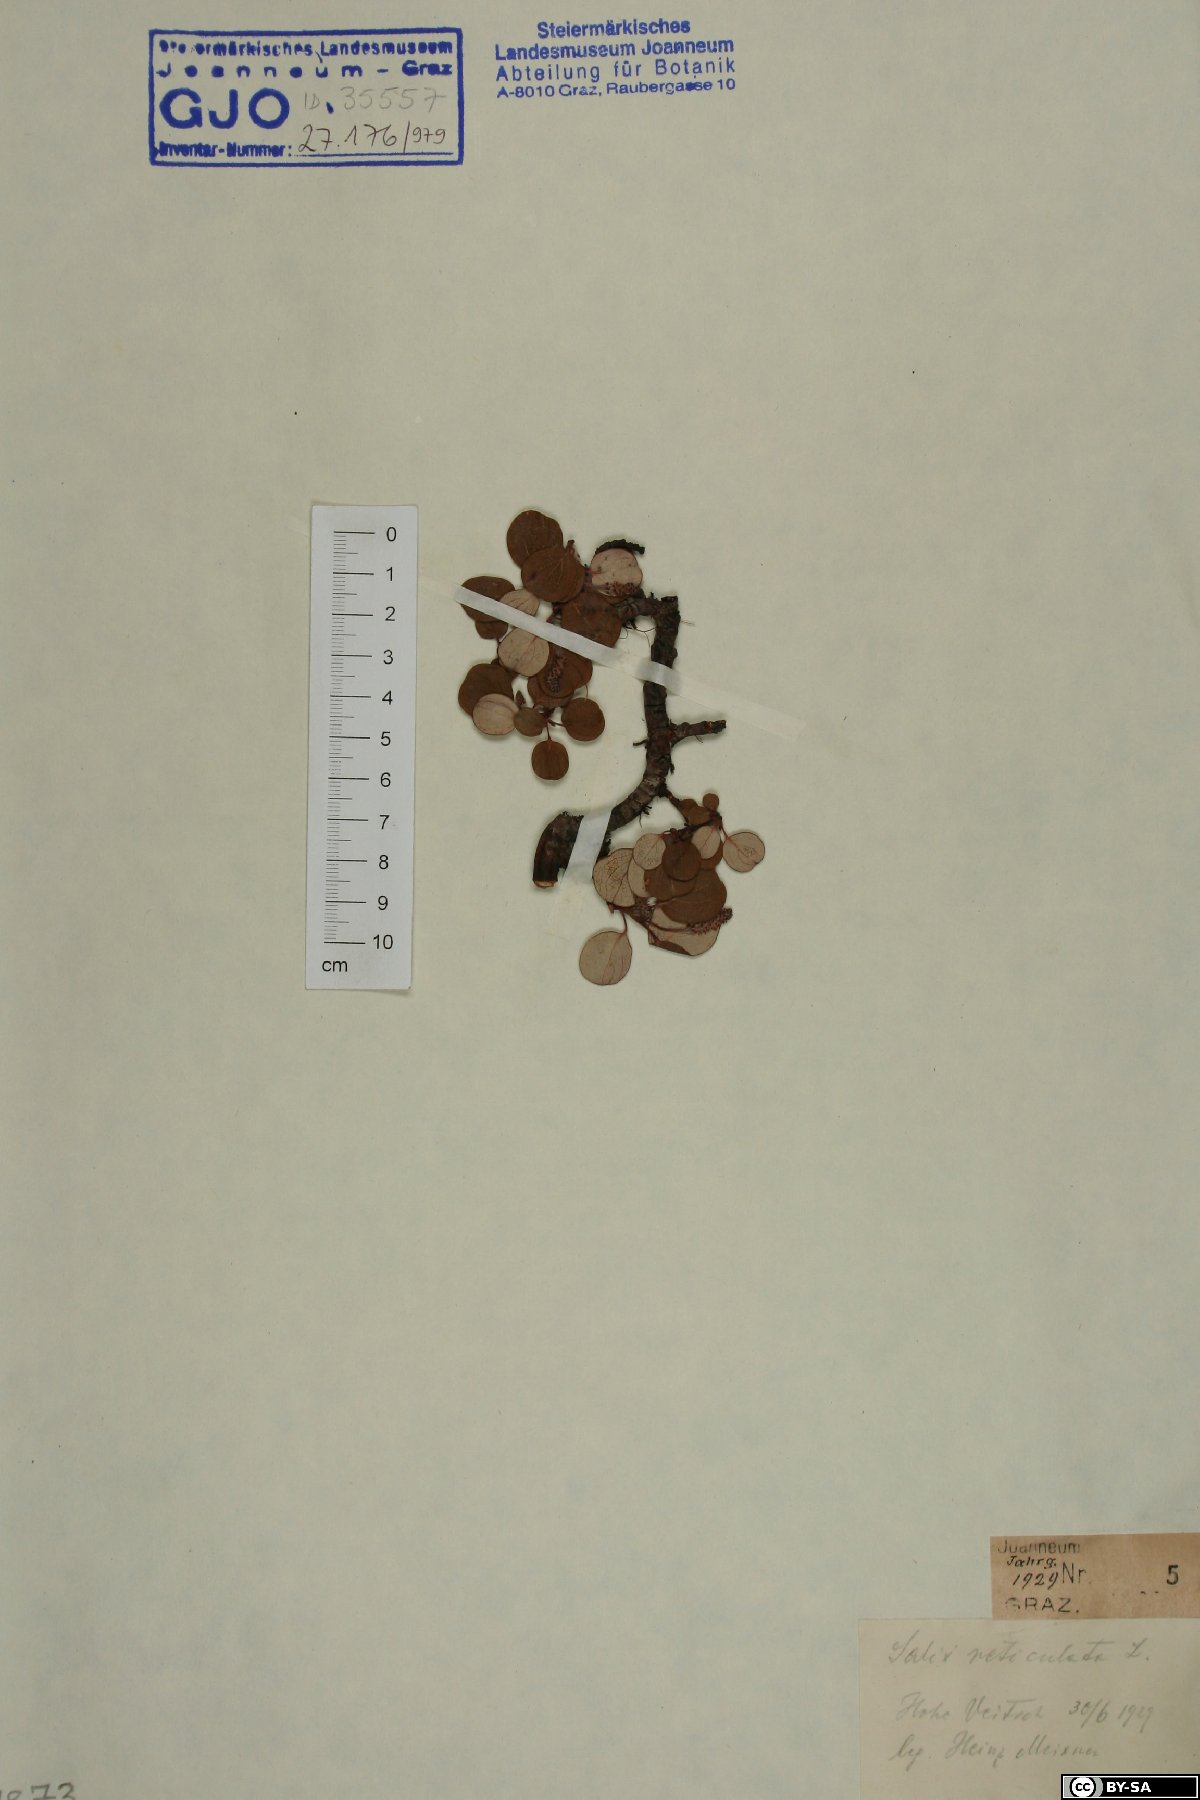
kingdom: Plantae
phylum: Tracheophyta
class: Magnoliopsida
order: Malpighiales
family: Salicaceae
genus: Salix
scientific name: Salix reticulata
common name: Net-leaved willow
